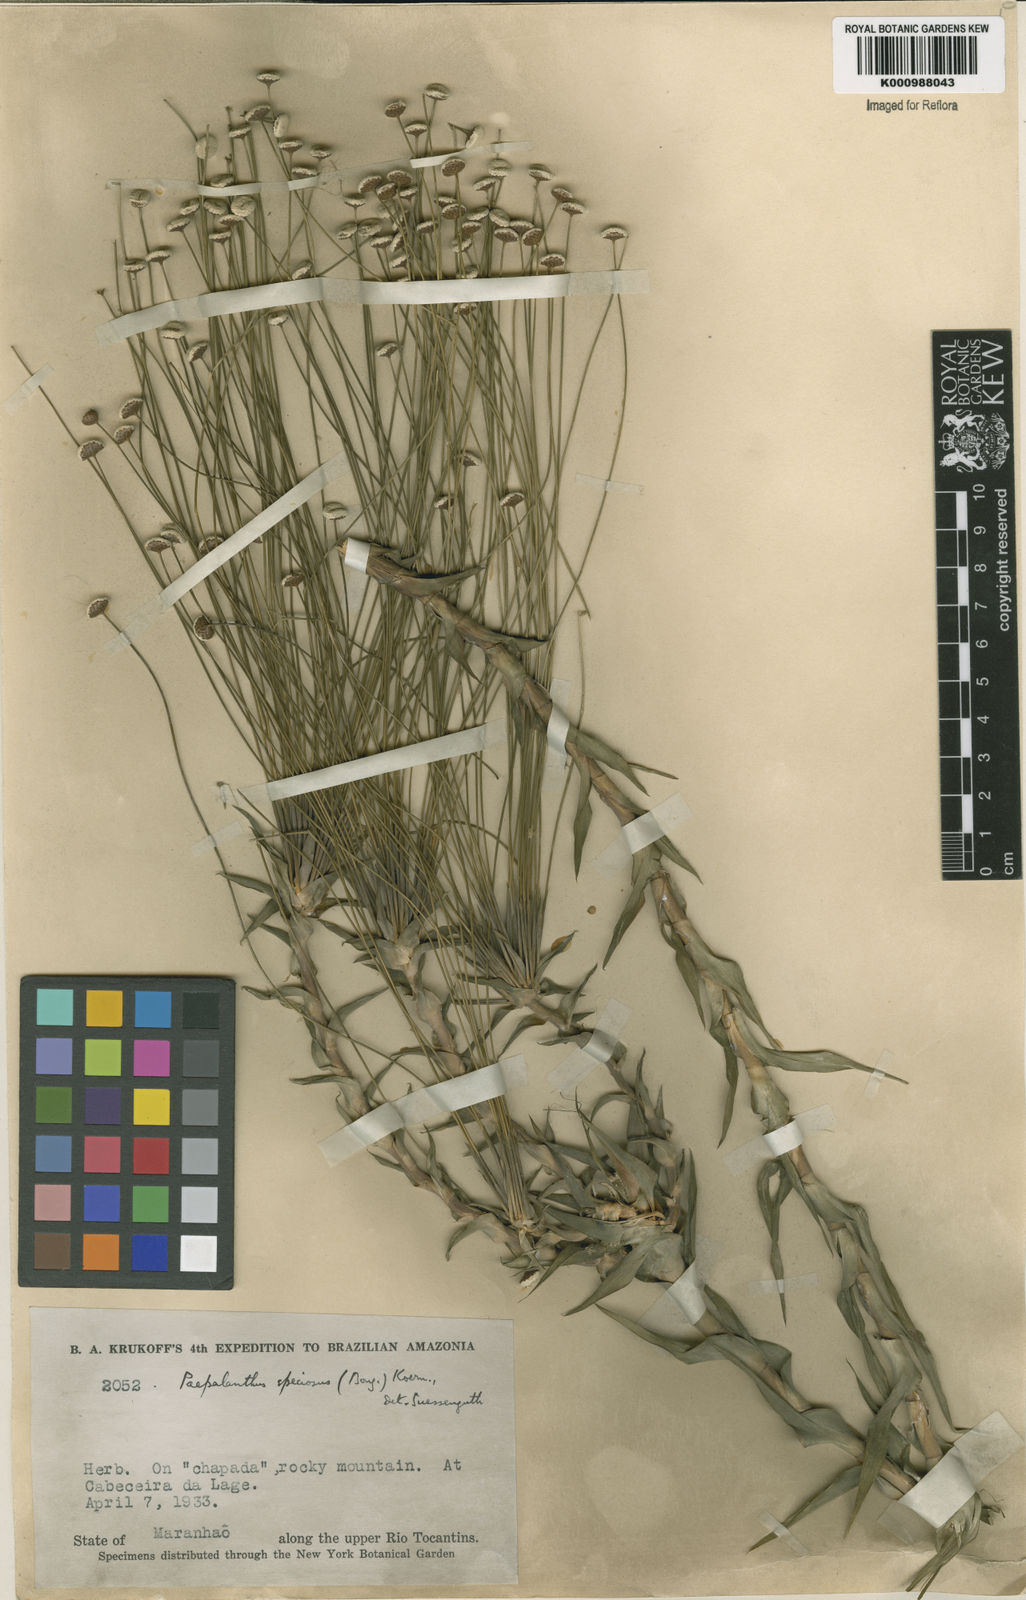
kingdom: Plantae
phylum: Tracheophyta
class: Liliopsida
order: Poales
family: Eriocaulaceae
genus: Paepalanthus
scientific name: Paepalanthus
